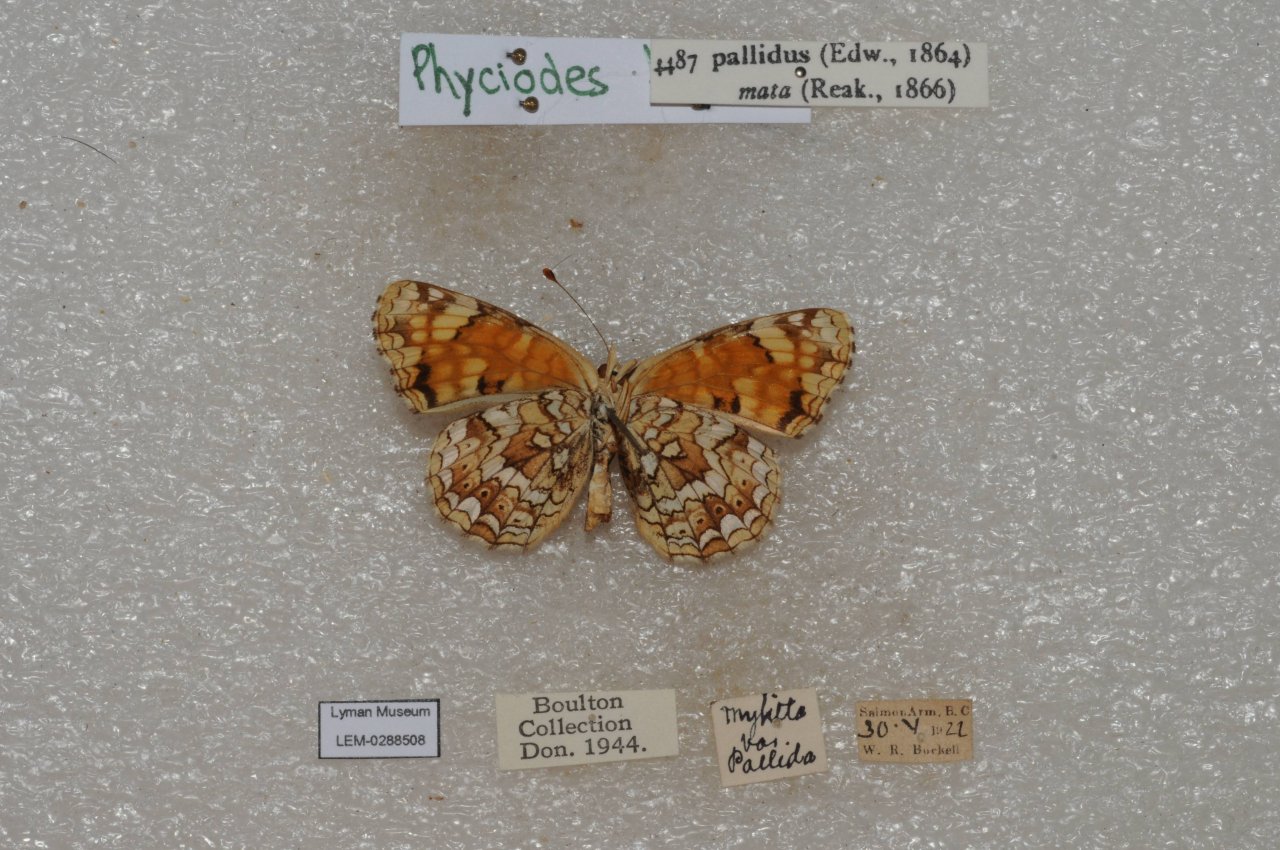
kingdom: Animalia
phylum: Arthropoda
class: Insecta
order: Lepidoptera
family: Nymphalidae
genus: Phyciodes
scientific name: Phyciodes pallida
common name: Pale Crescent
